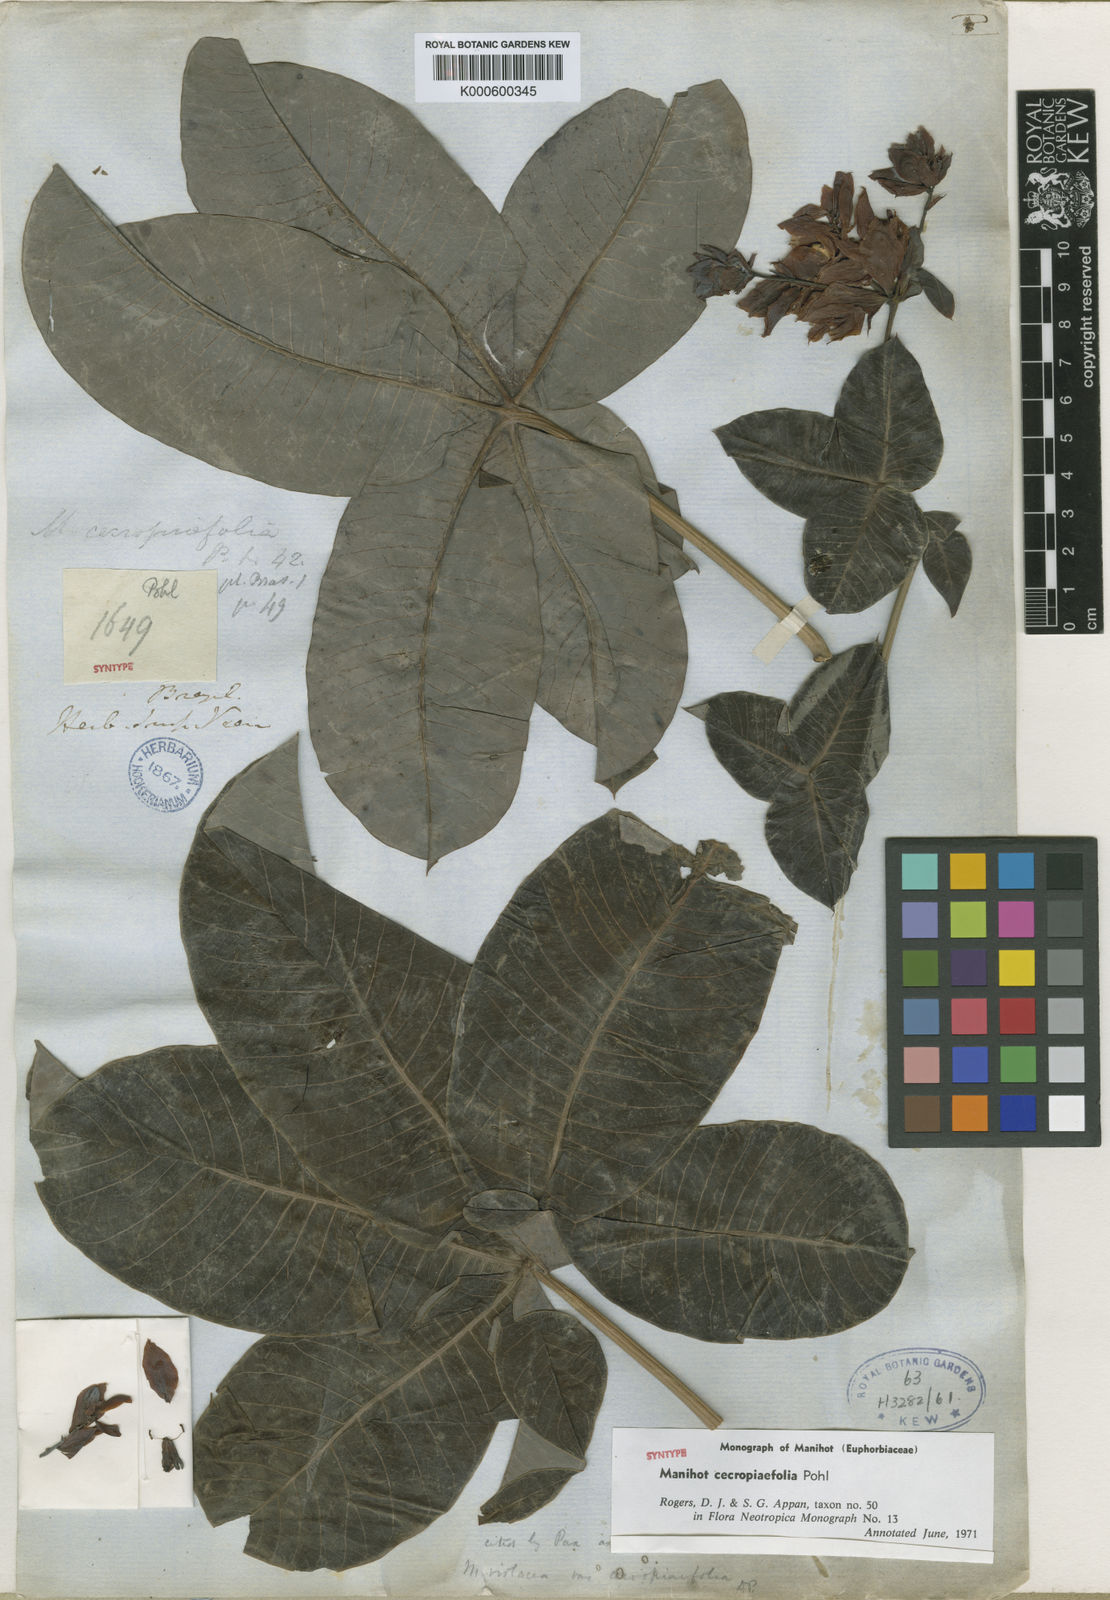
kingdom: Plantae
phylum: Tracheophyta
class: Magnoliopsida
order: Malpighiales
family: Euphorbiaceae
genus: Manihot
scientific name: Manihot cecropiifolia
